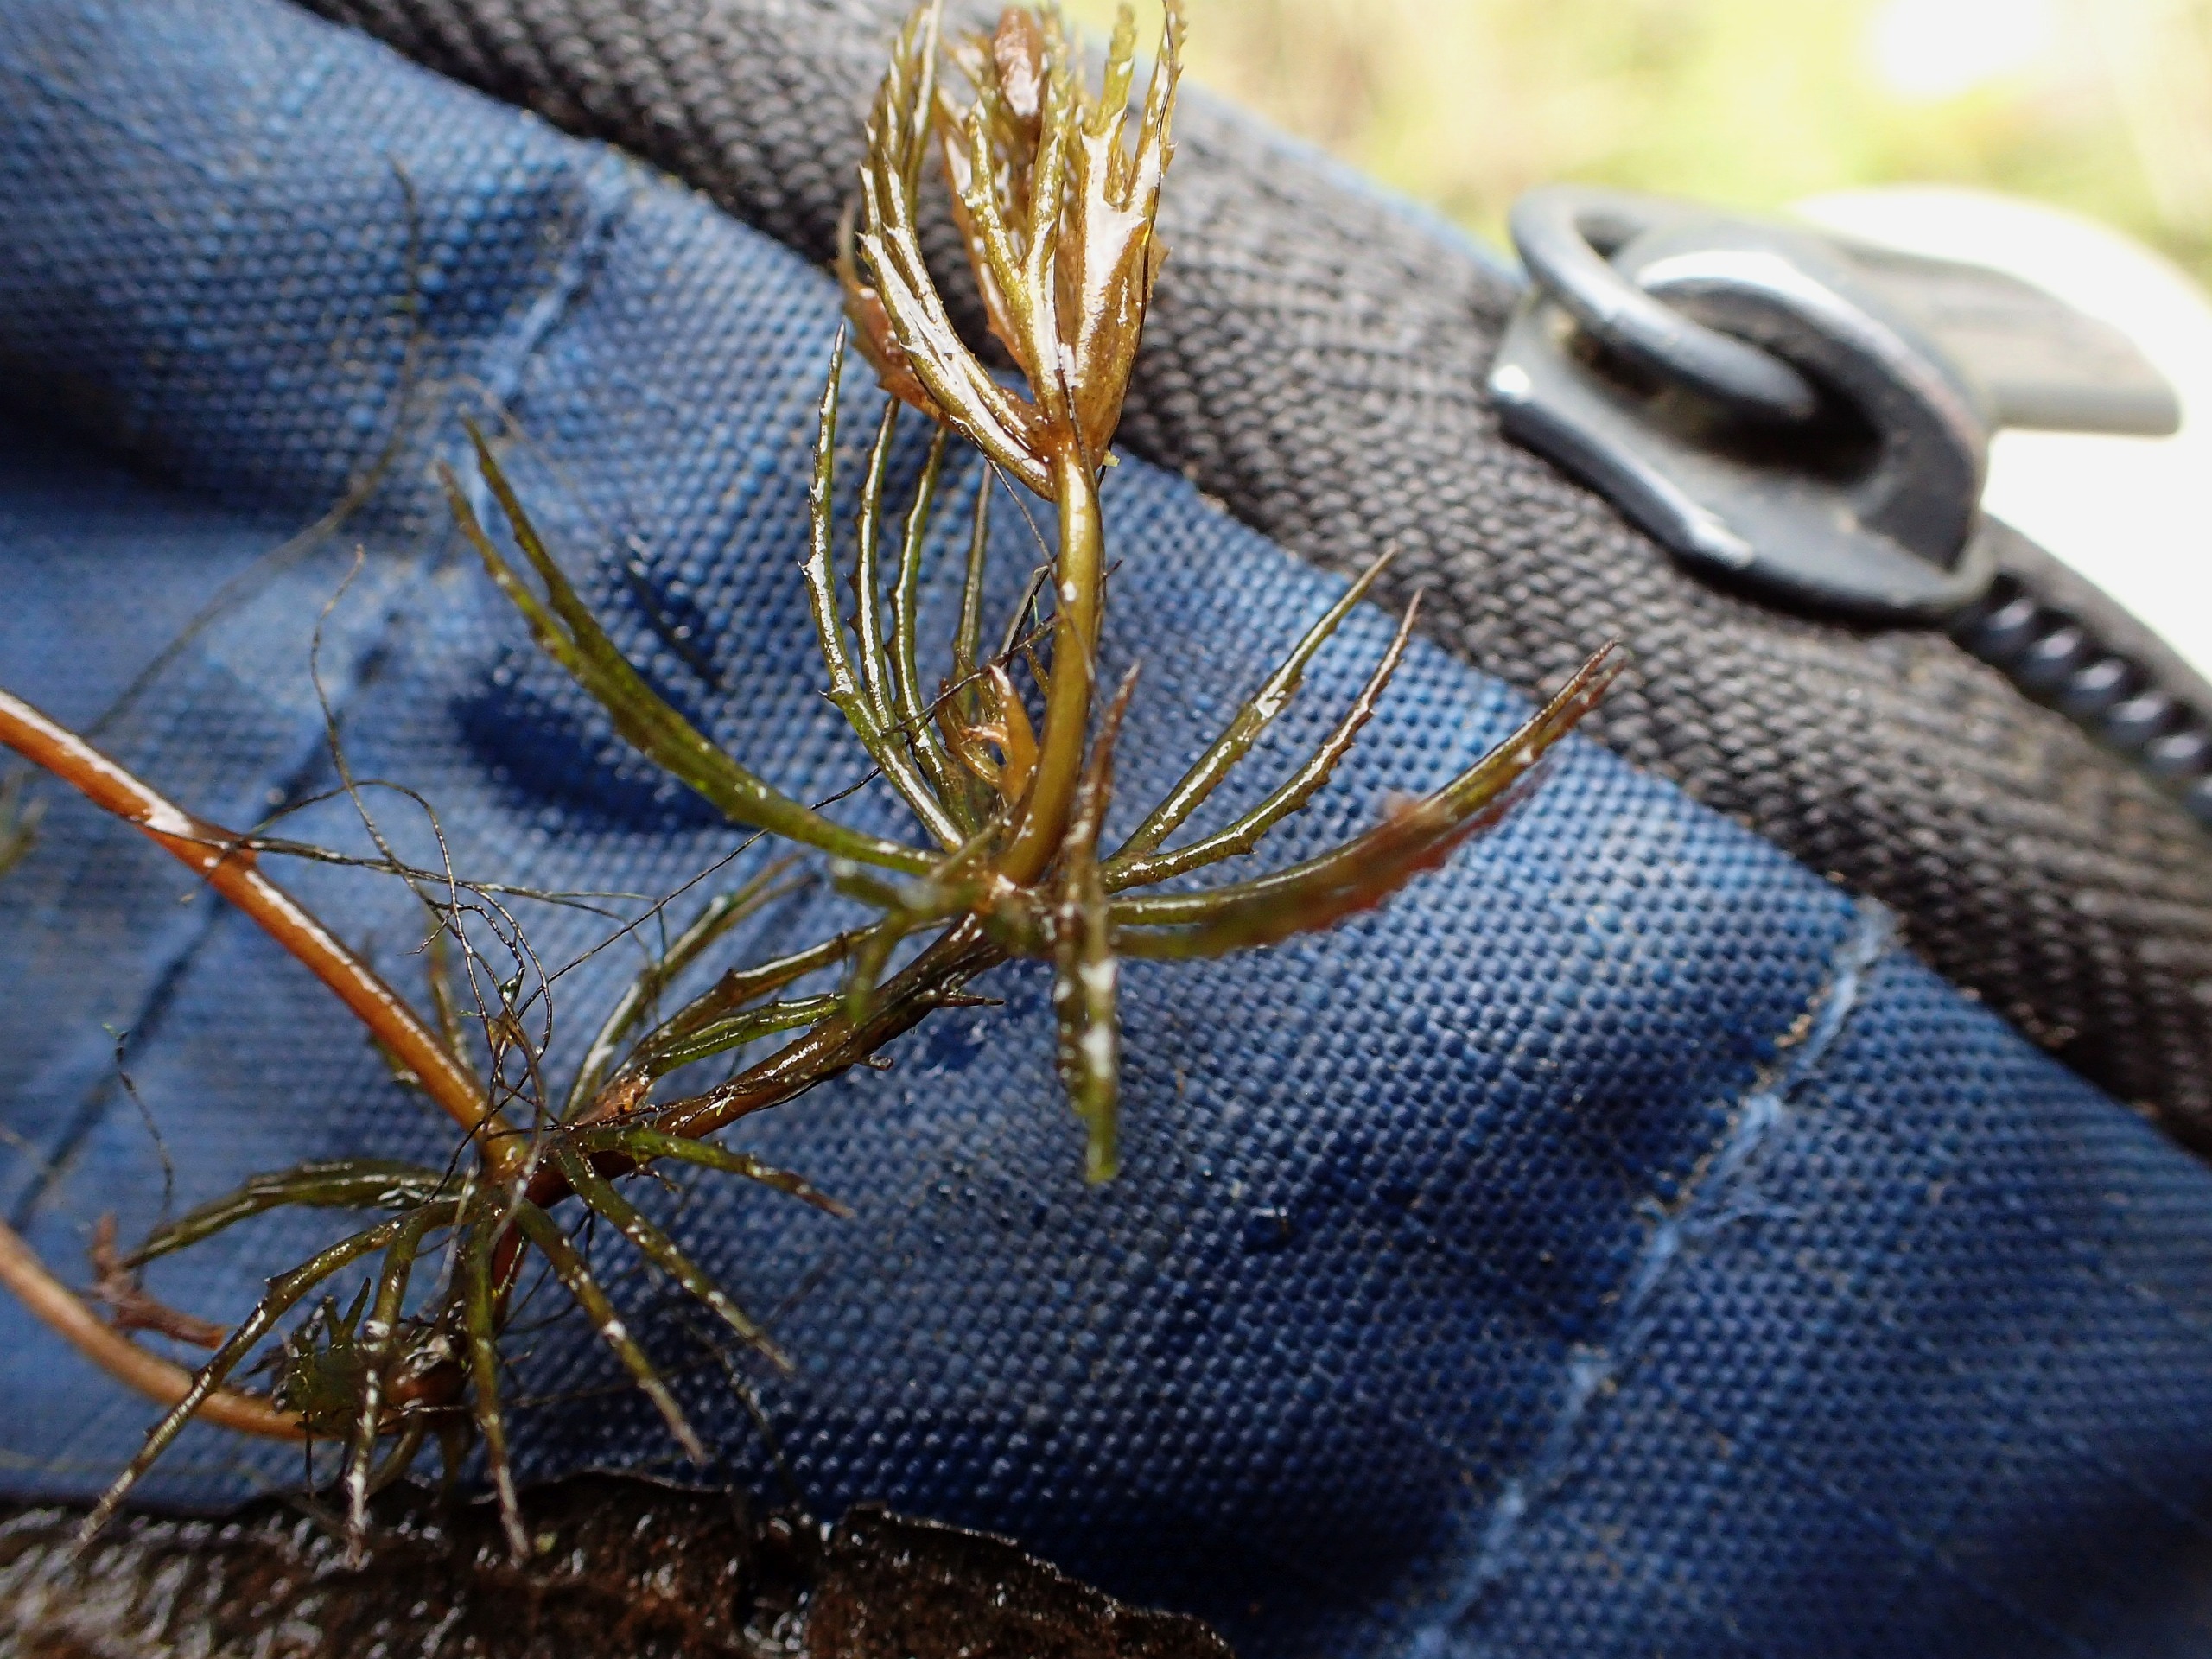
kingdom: Plantae
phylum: Tracheophyta
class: Magnoliopsida
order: Ceratophyllales
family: Ceratophyllaceae
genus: Ceratophyllum
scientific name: Ceratophyllum demersum
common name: Tornfrøet hornblad
